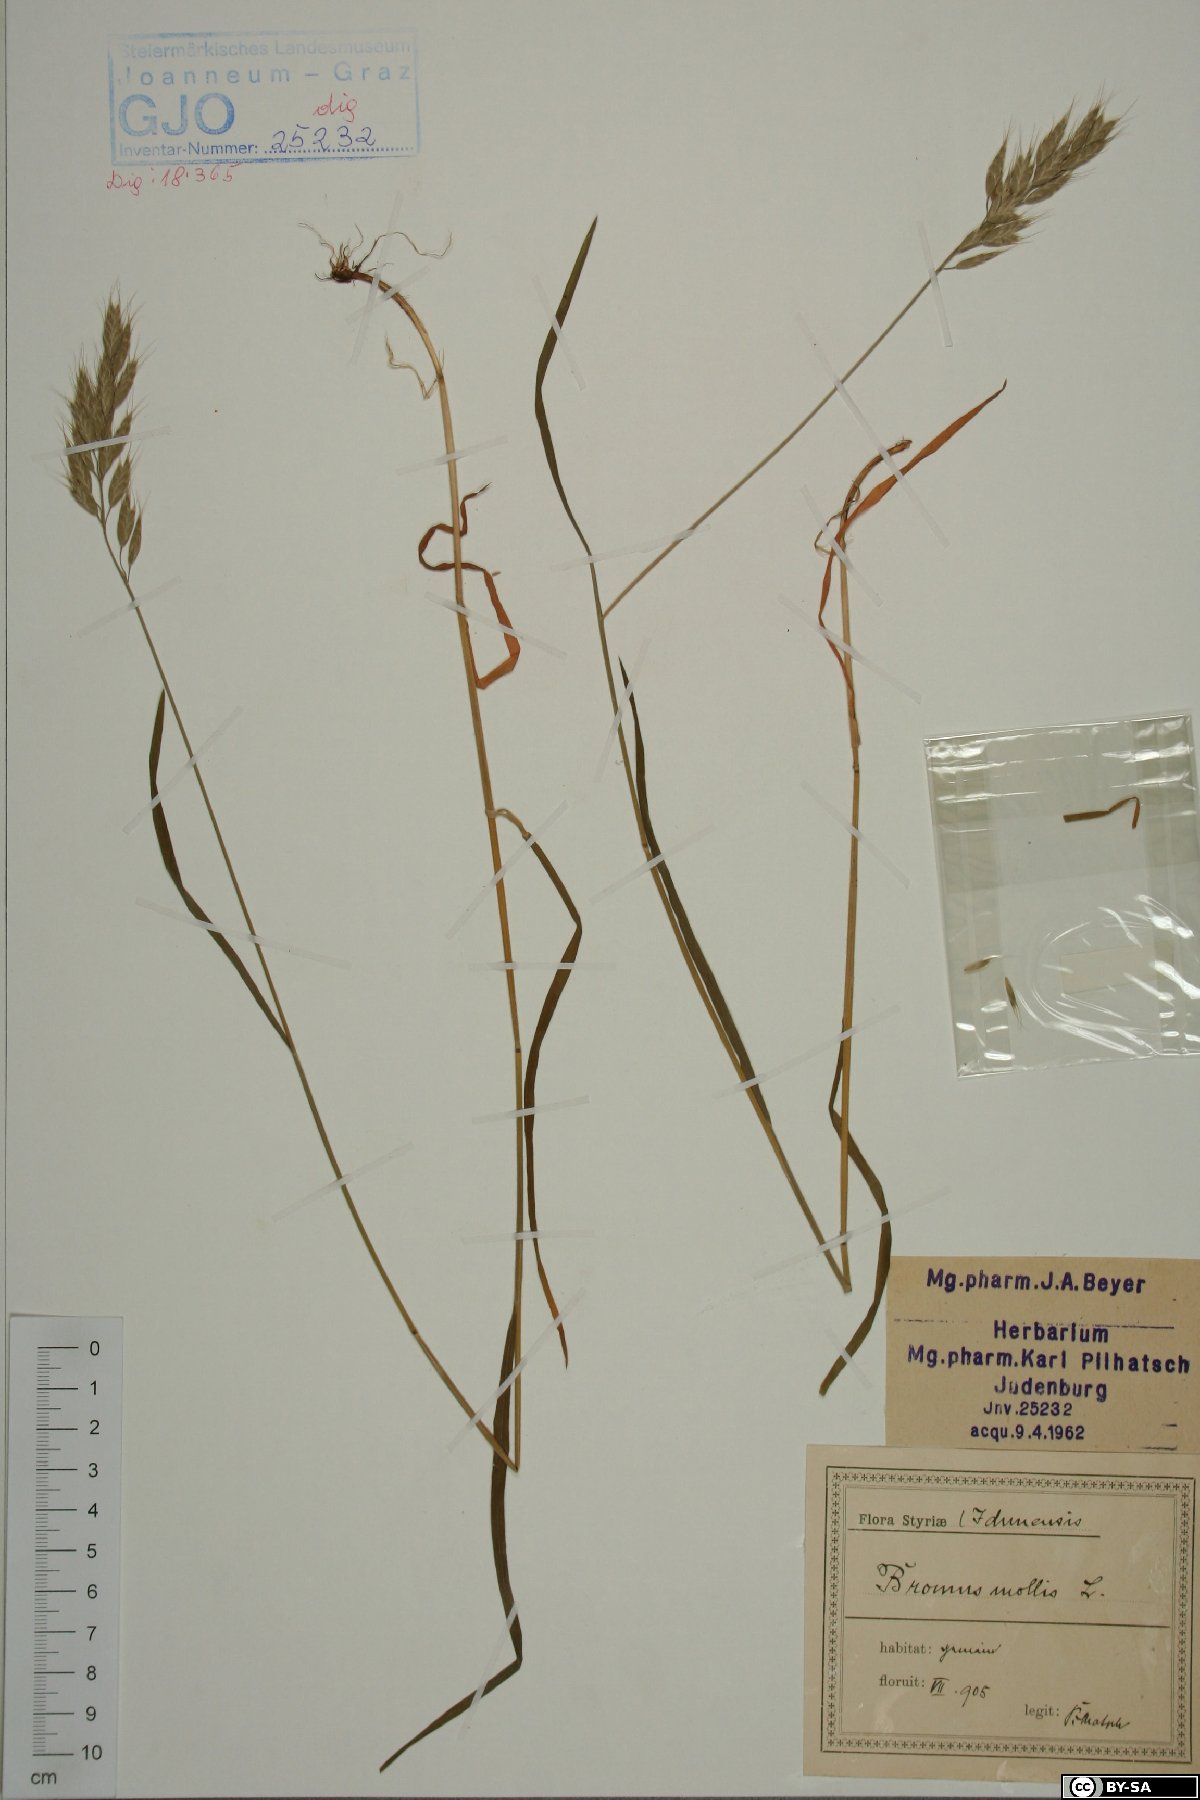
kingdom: Plantae
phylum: Tracheophyta
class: Liliopsida
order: Poales
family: Poaceae
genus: Bromus
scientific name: Bromus hordeaceus
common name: Soft brome
